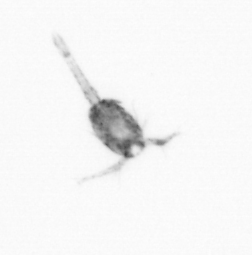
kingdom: Animalia
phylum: Arthropoda
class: Copepoda
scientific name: Copepoda
